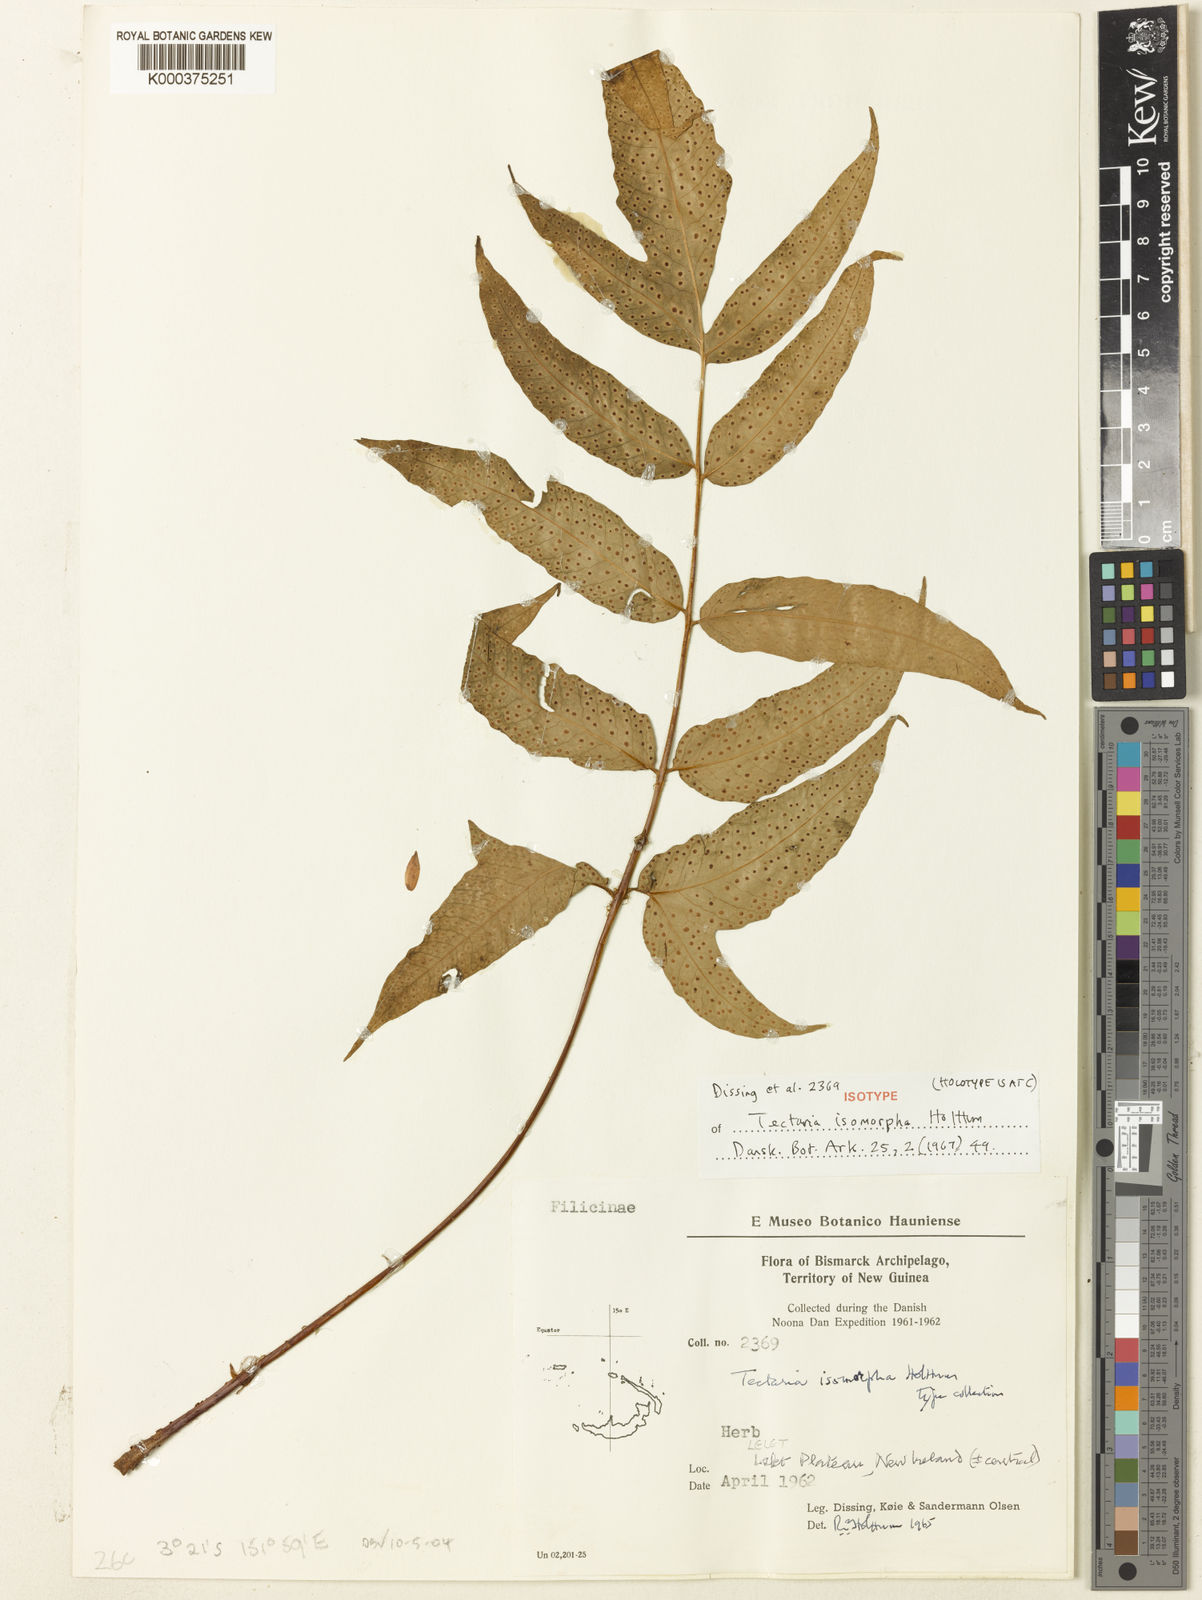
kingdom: Plantae
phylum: Tracheophyta
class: Polypodiopsida
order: Polypodiales
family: Tectariaceae
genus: Tectaria
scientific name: Tectaria isomorpha
